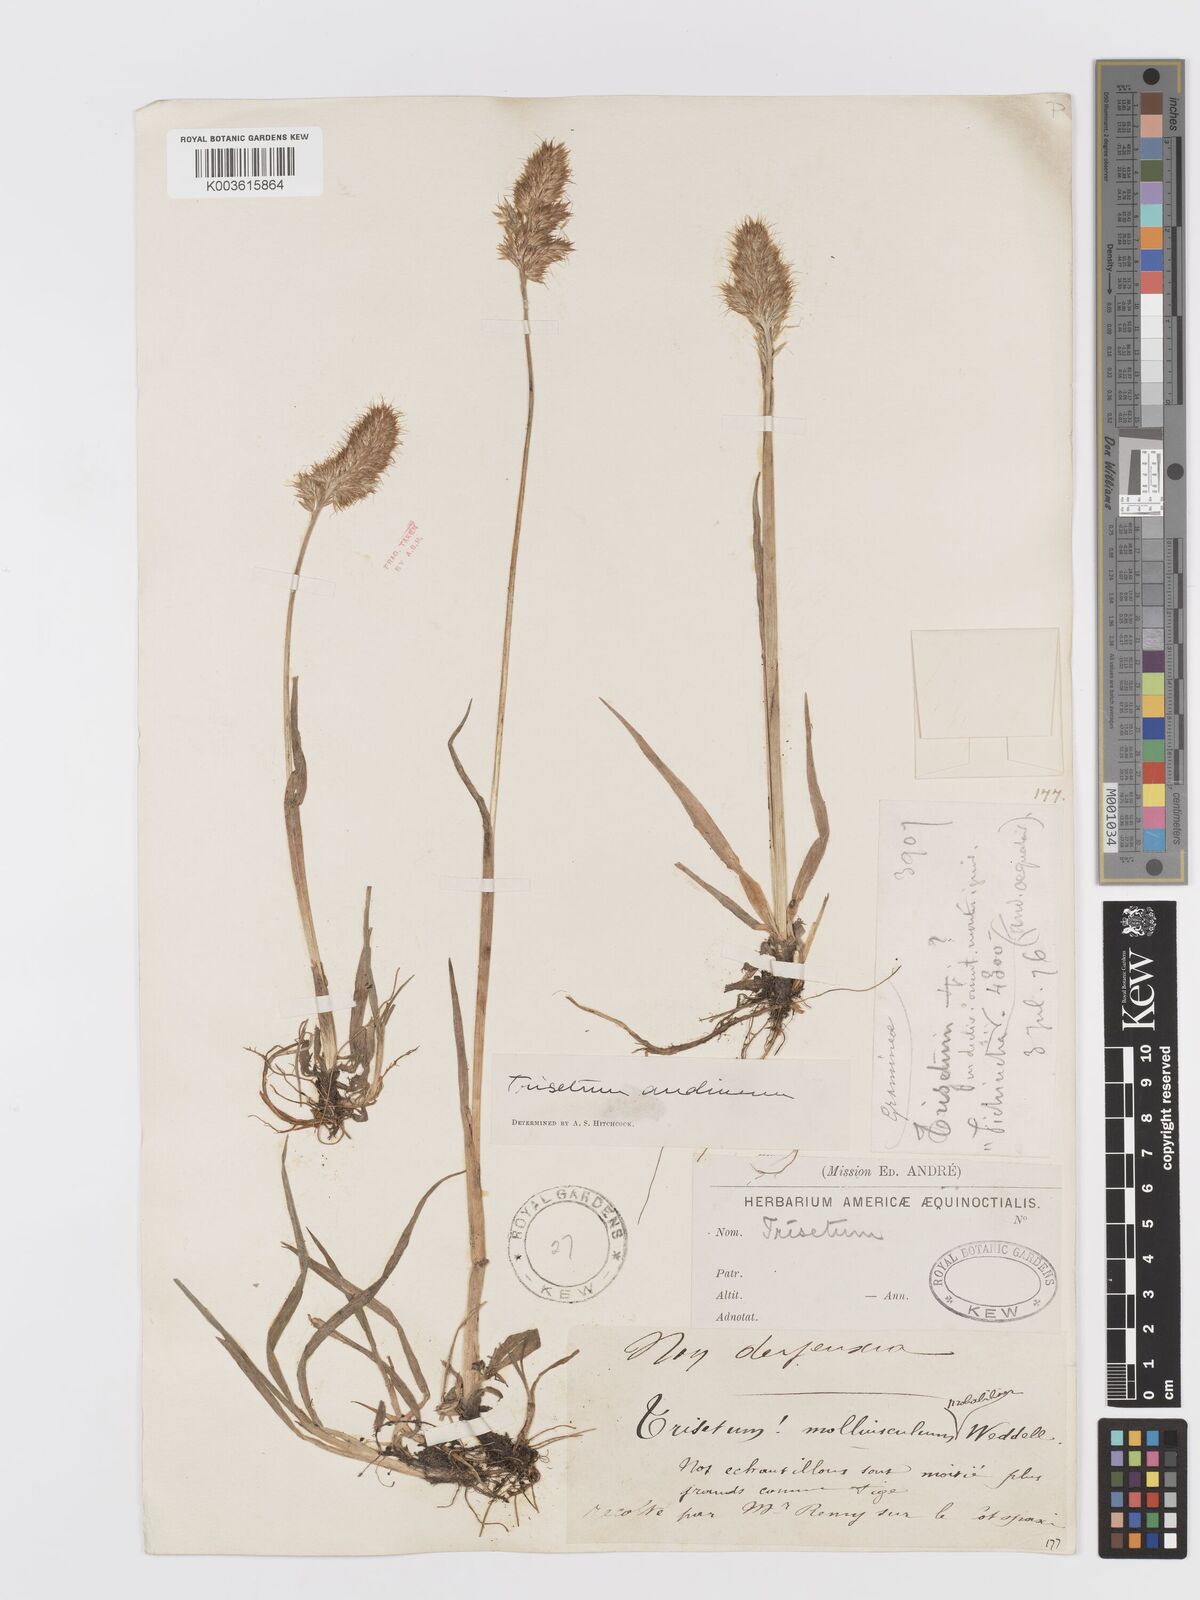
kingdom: Plantae
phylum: Tracheophyta
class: Liliopsida
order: Poales
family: Poaceae
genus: Koeleria
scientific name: Koeleria spicata
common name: Mountain trisetum
